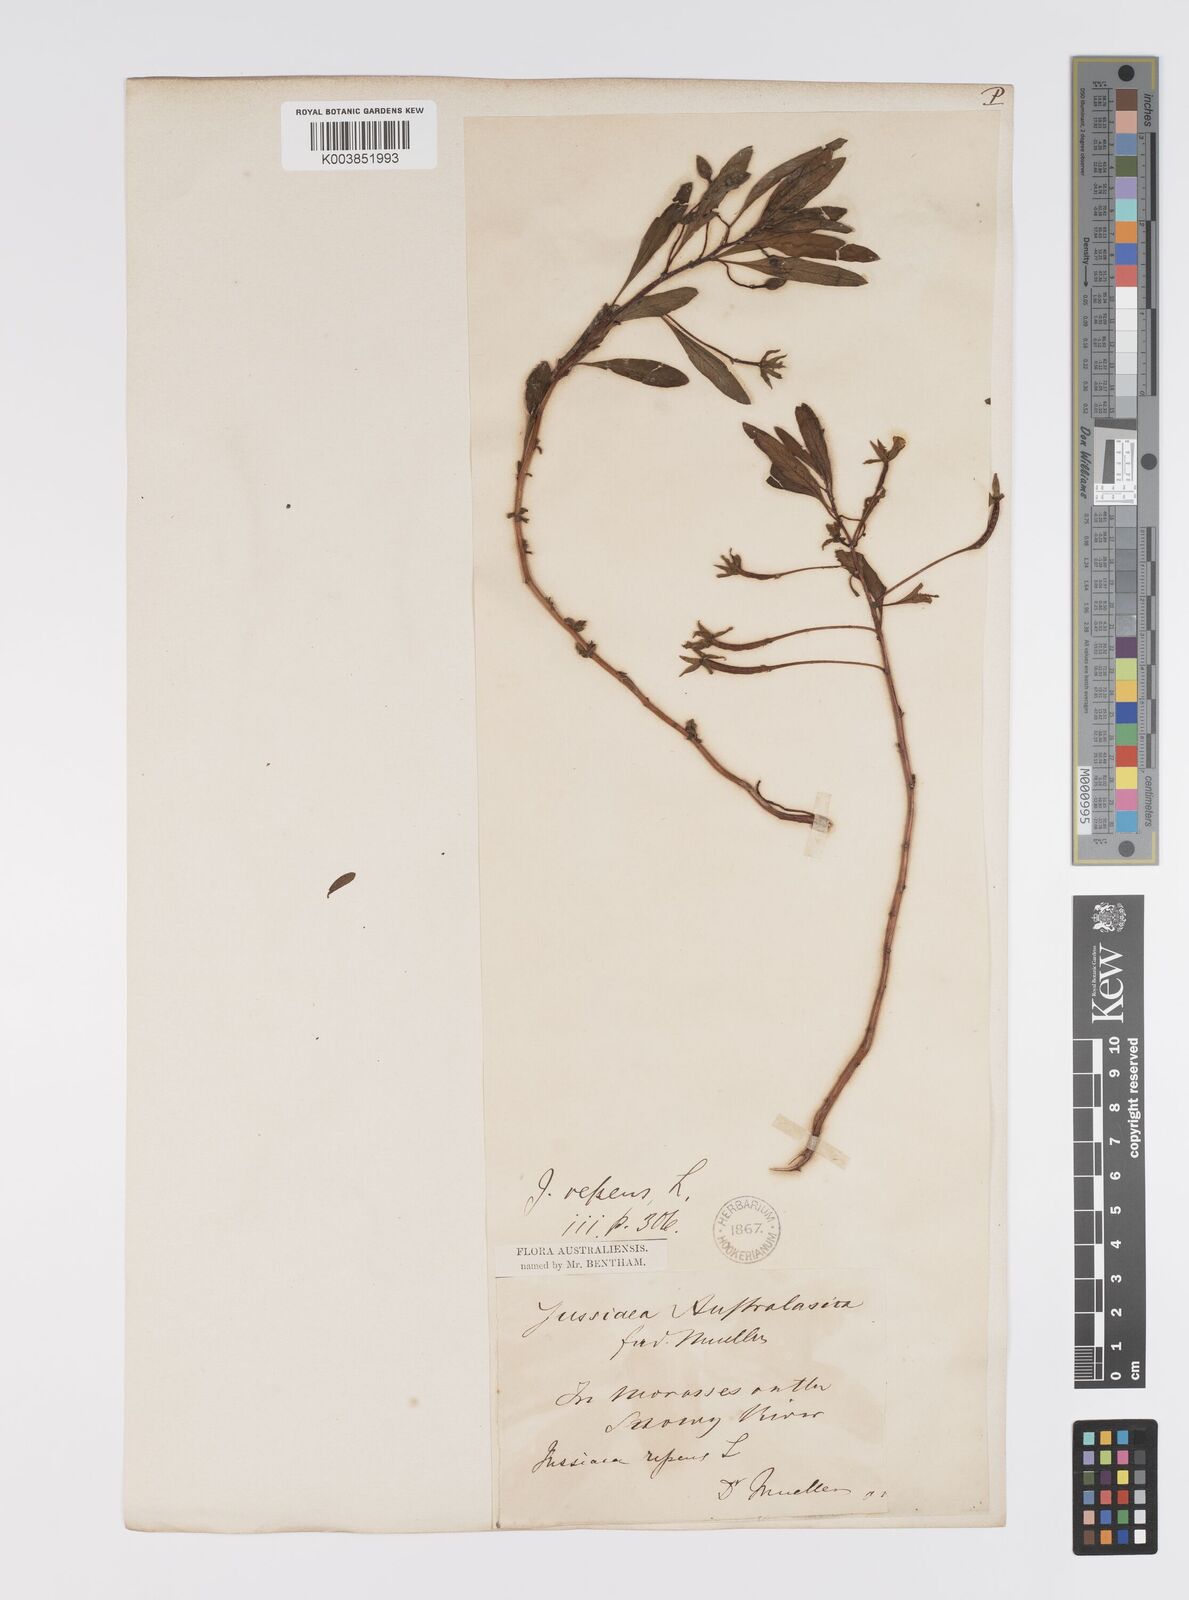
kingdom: Plantae
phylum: Tracheophyta
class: Magnoliopsida
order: Myrtales
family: Onagraceae
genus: Ludwigia
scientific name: Ludwigia peploides
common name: Floating primrose-willow
